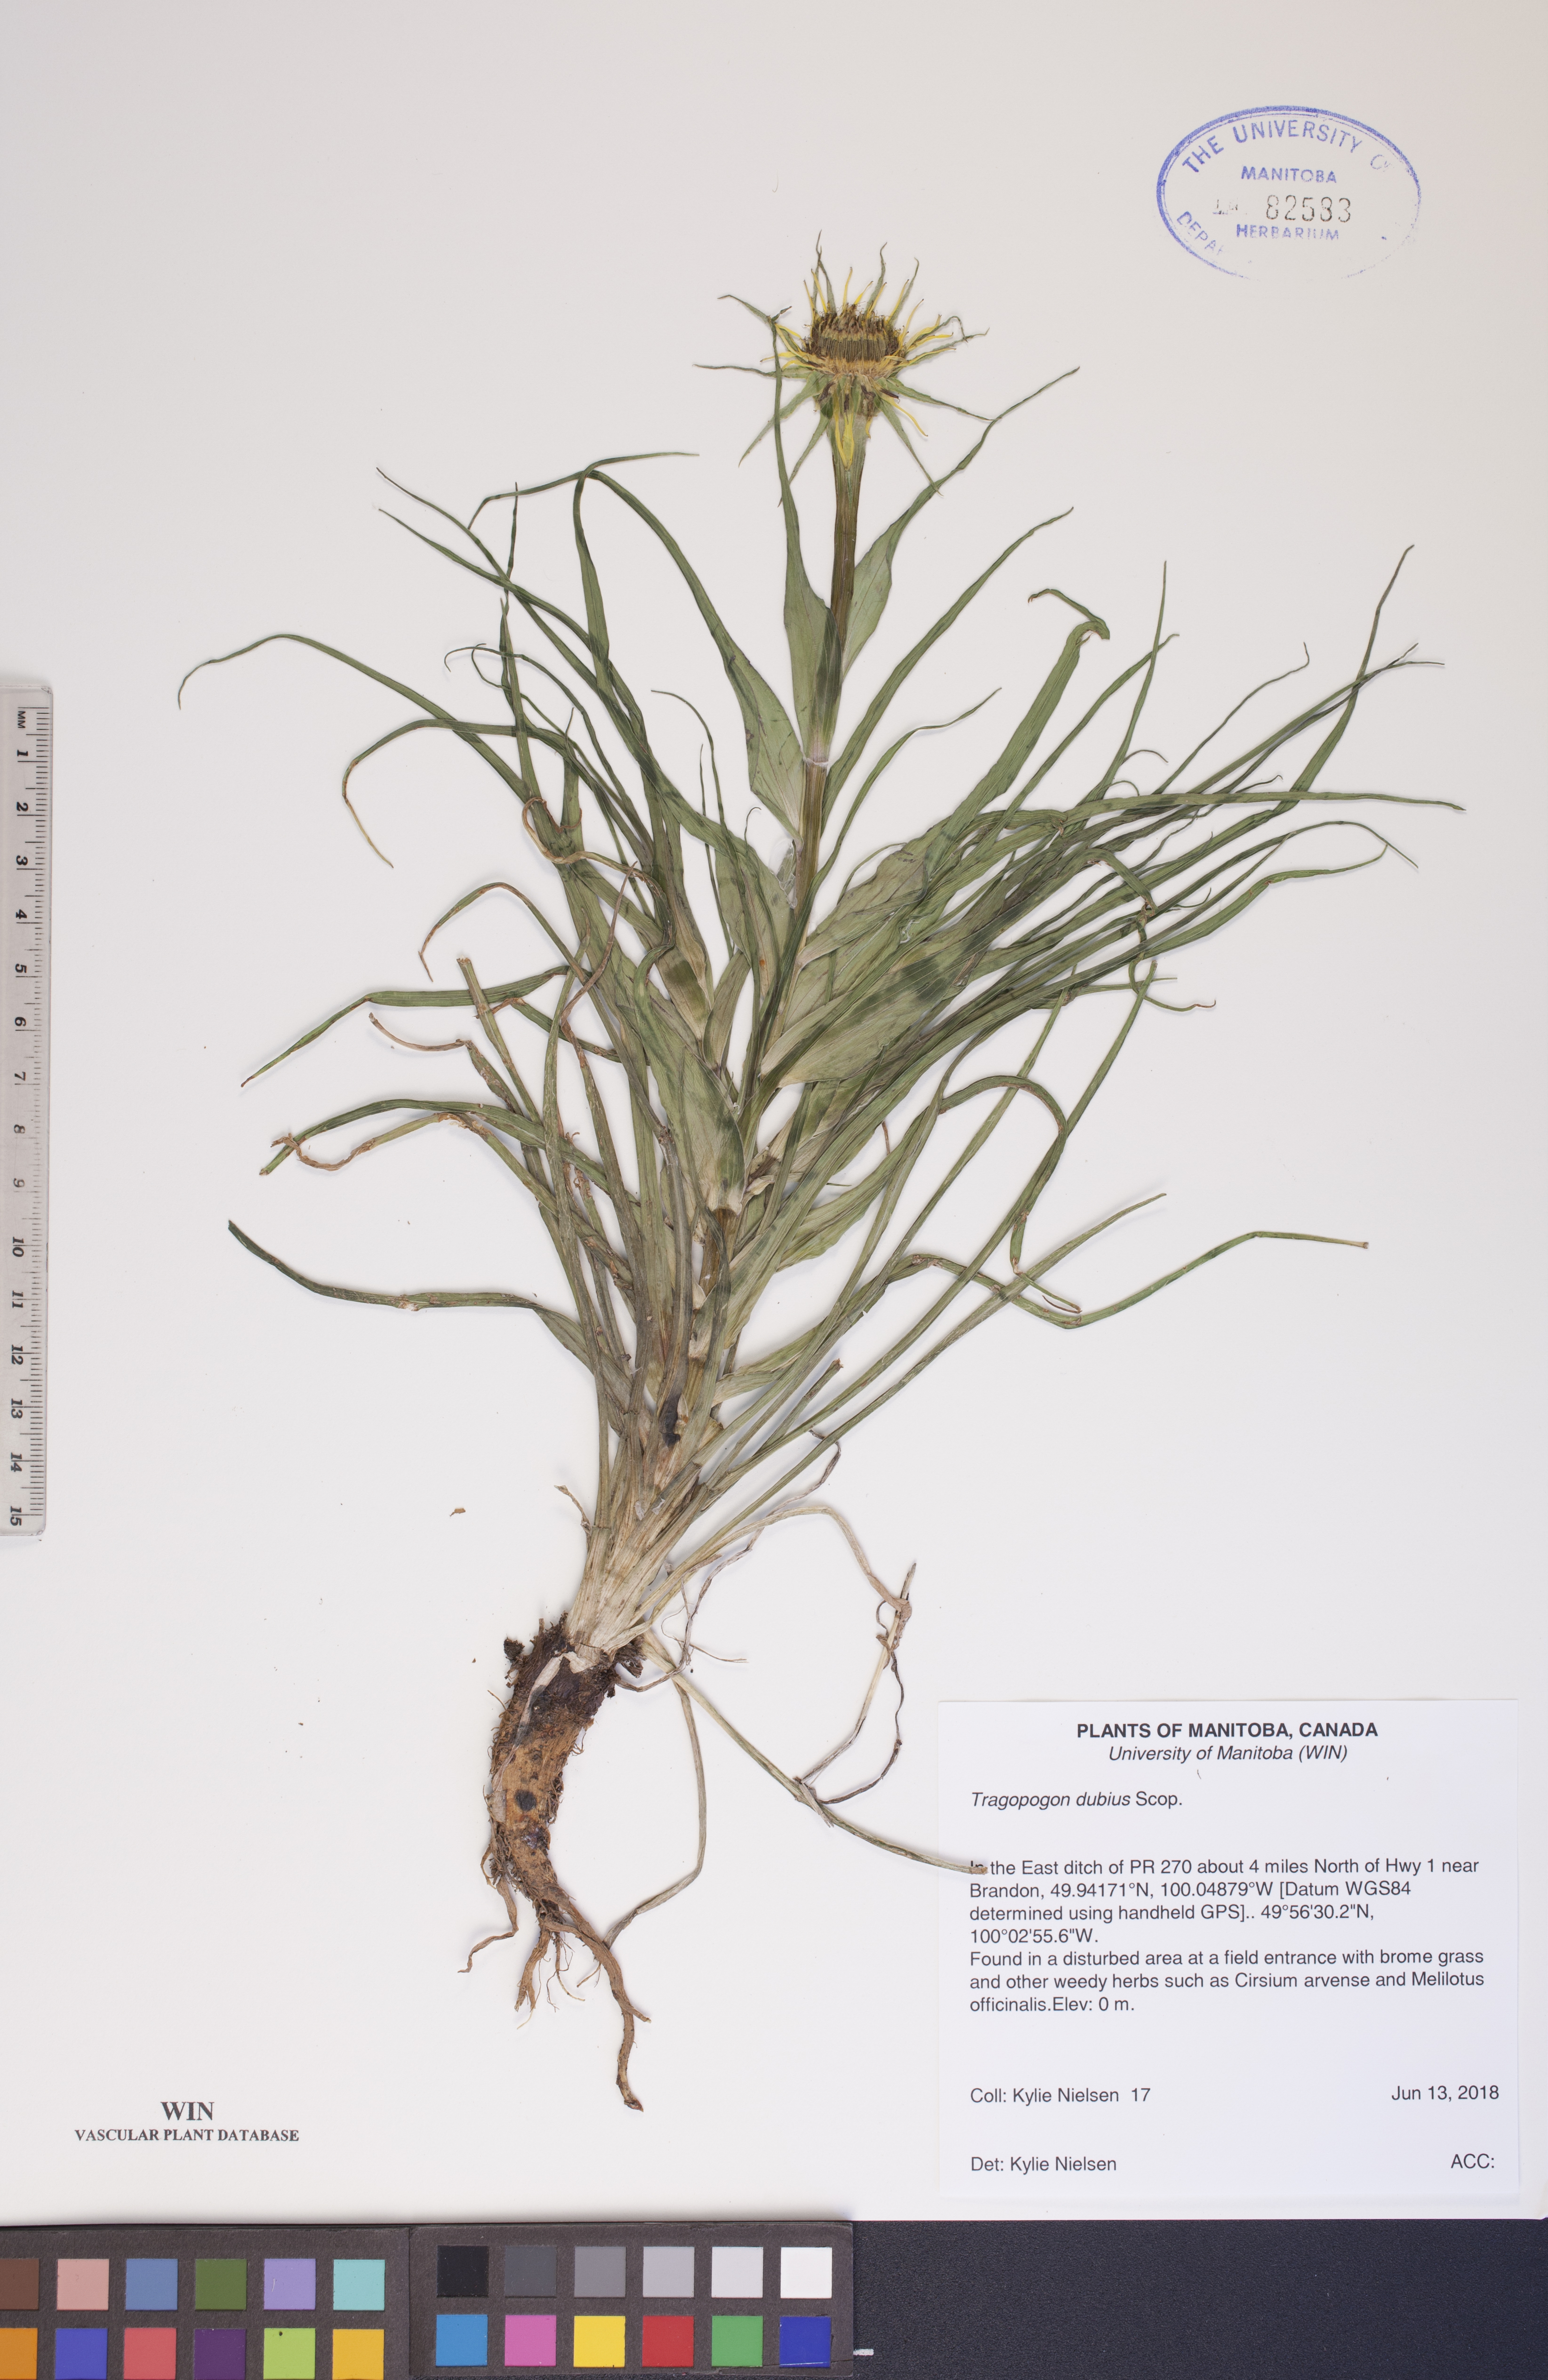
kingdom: Plantae
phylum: Tracheophyta
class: Magnoliopsida
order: Asterales
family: Asteraceae
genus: Tragopogon
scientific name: Tragopogon dubius
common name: Yellow salsify
